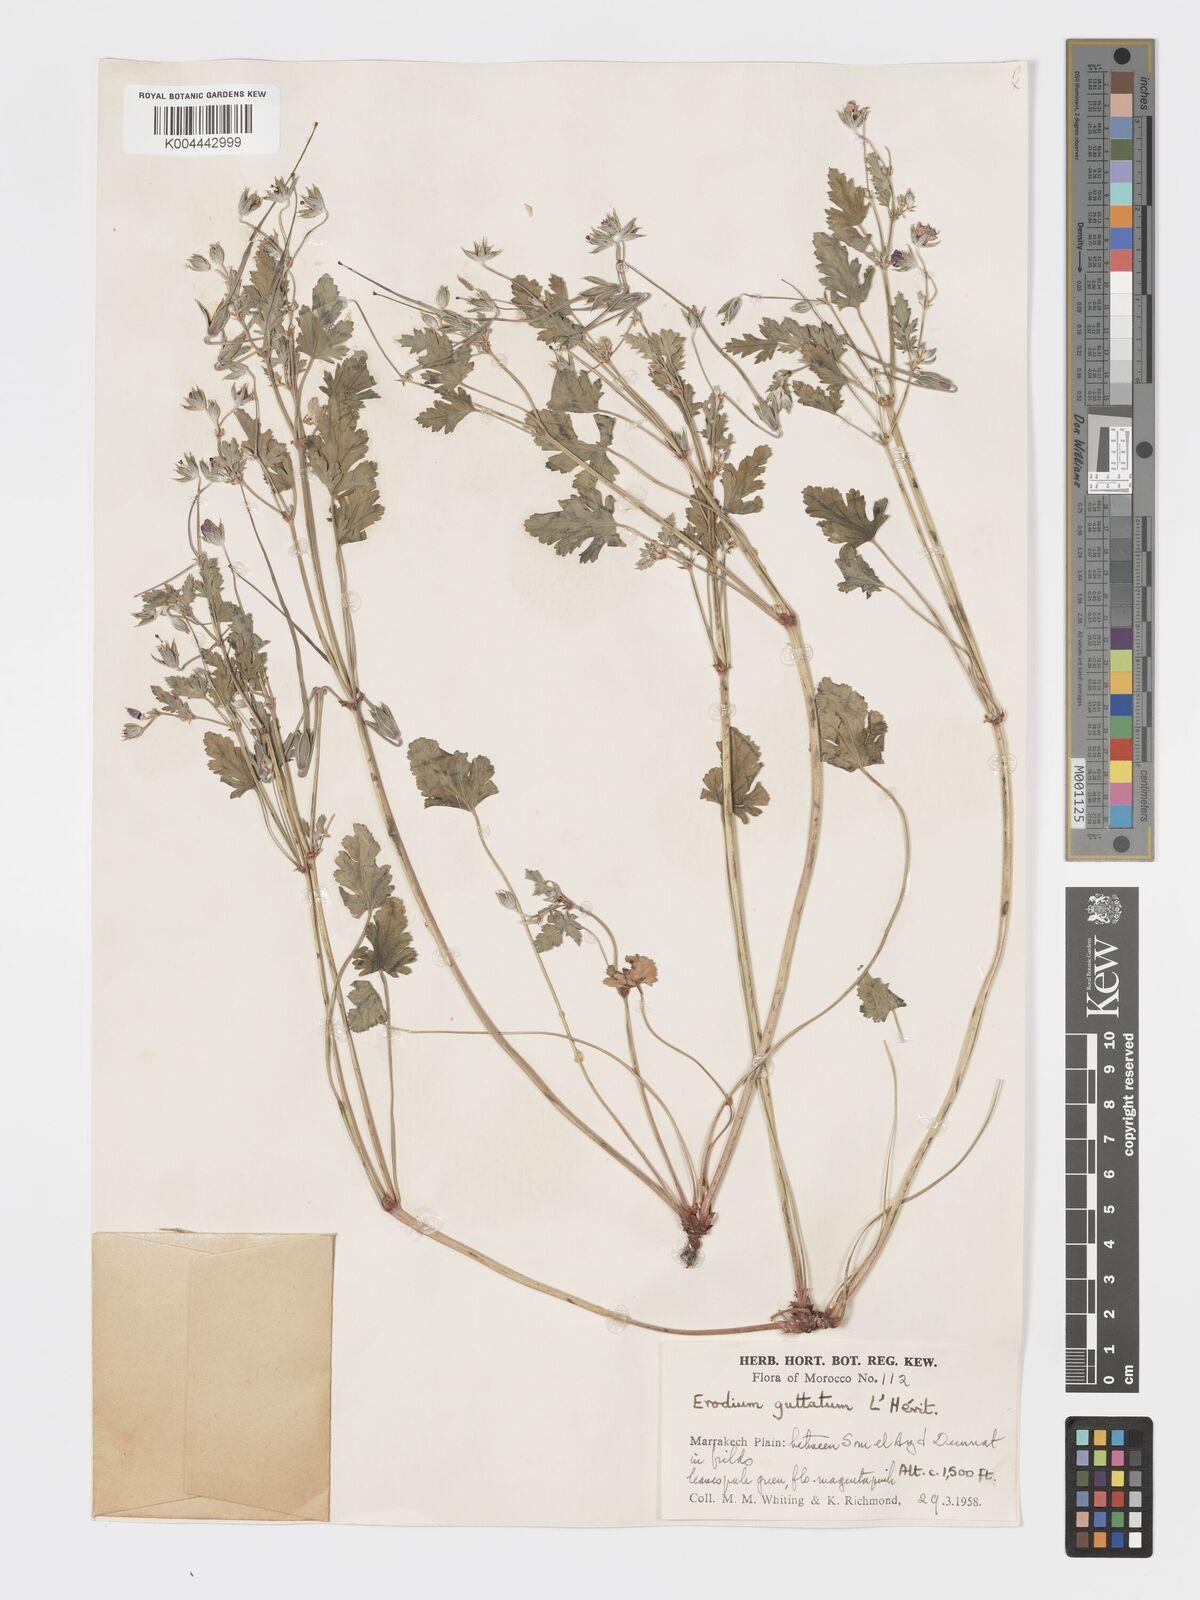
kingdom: Plantae
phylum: Tracheophyta
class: Magnoliopsida
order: Geraniales
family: Geraniaceae
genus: Erodium
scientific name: Erodium guttatum
